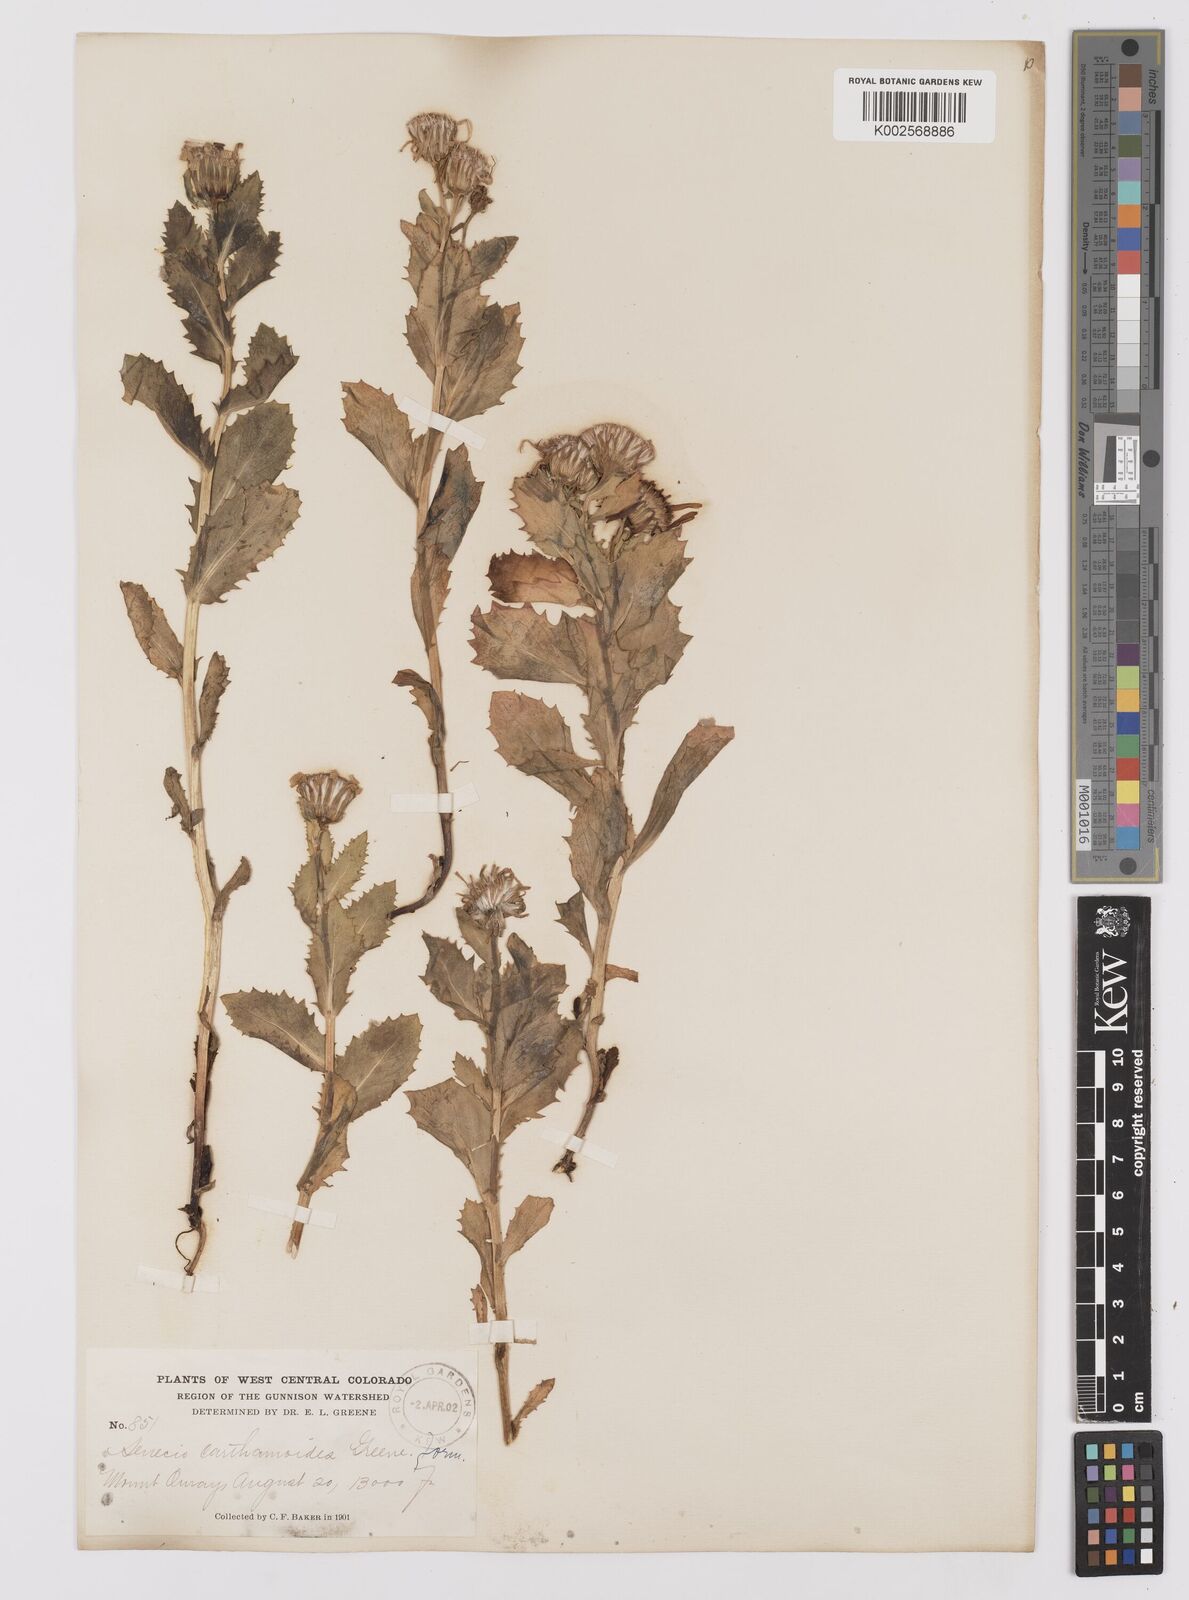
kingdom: Plantae
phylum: Tracheophyta
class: Magnoliopsida
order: Asterales
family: Asteraceae
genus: Senecio
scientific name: Senecio blitoides
